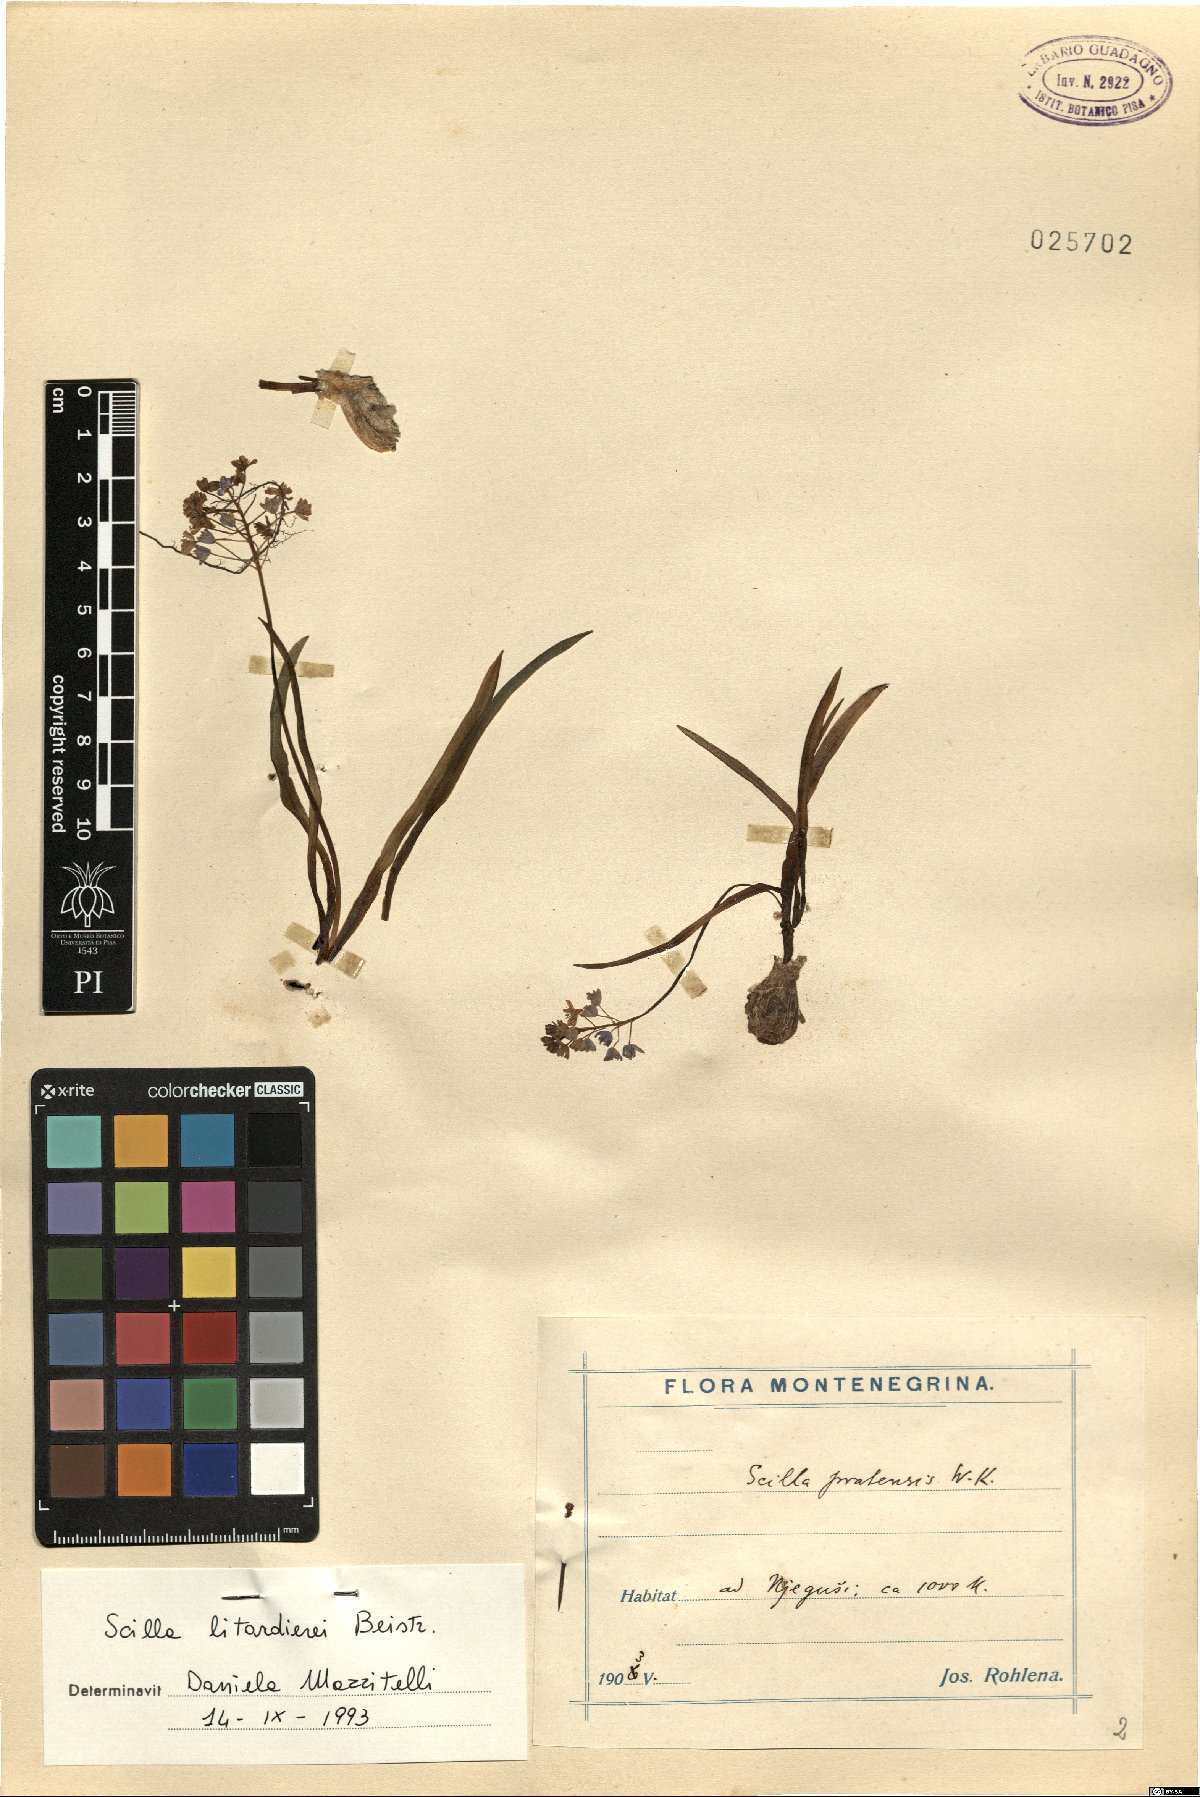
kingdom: Plantae
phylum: Tracheophyta
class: Liliopsida
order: Asparagales
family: Asparagaceae
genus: Scilla
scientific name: Scilla litardierei
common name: Amethyst meadow squill
